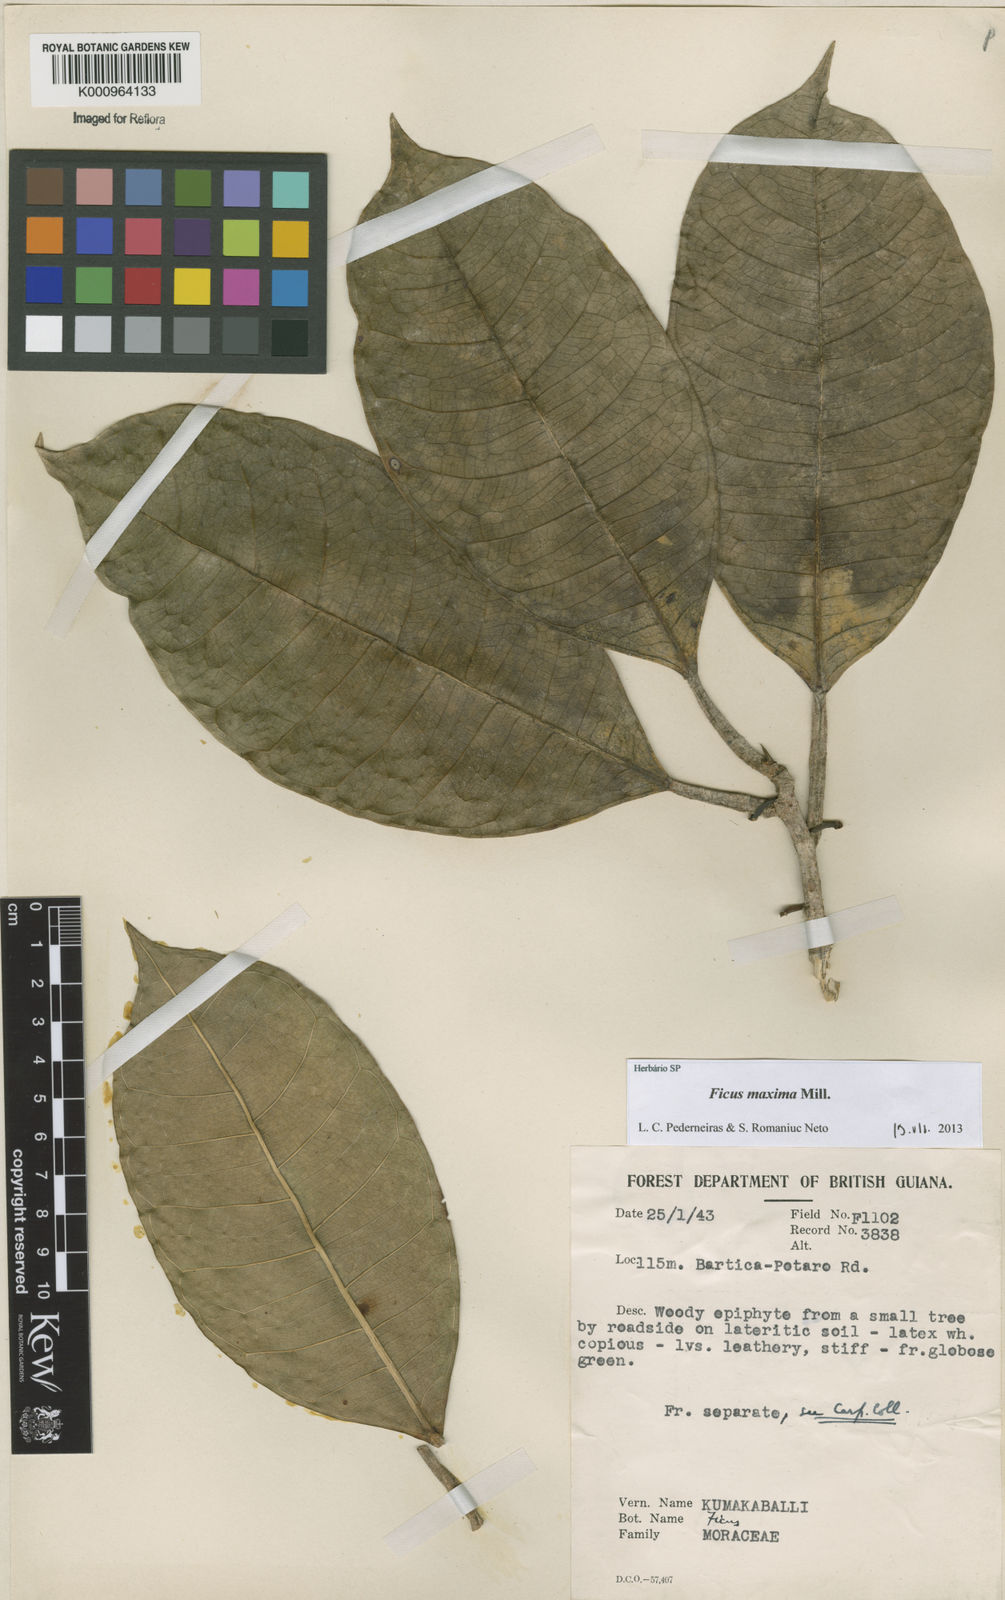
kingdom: Plantae
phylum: Tracheophyta
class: Magnoliopsida
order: Rosales
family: Moraceae
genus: Ficus
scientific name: Ficus maxima
